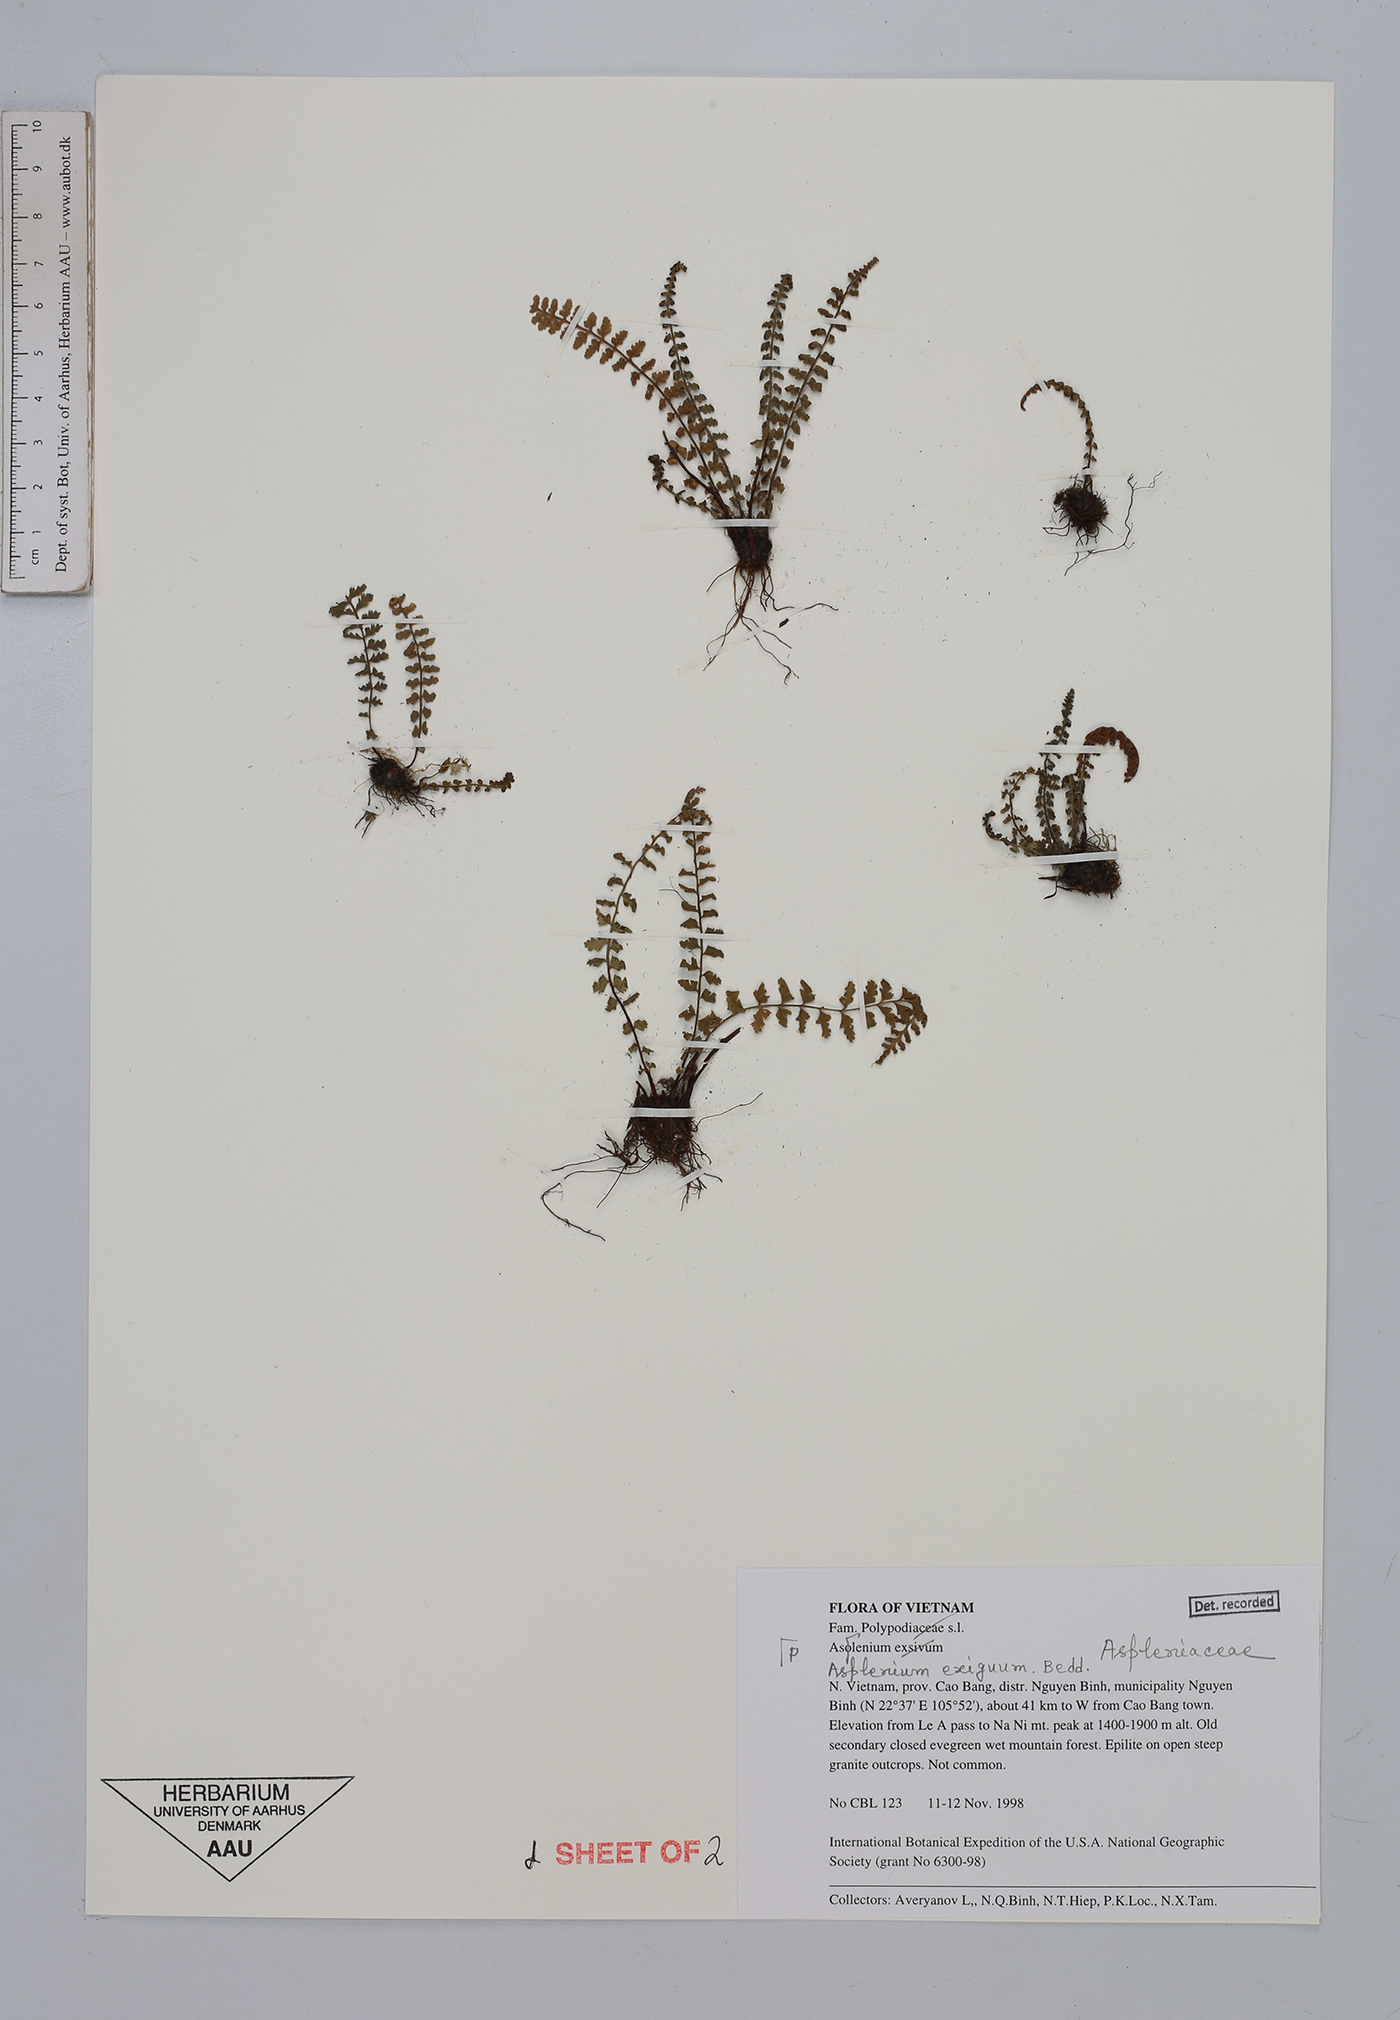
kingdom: Plantae
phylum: Tracheophyta
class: Polypodiopsida
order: Polypodiales
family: Aspleniaceae
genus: Asplenium
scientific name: Asplenium exiguum
